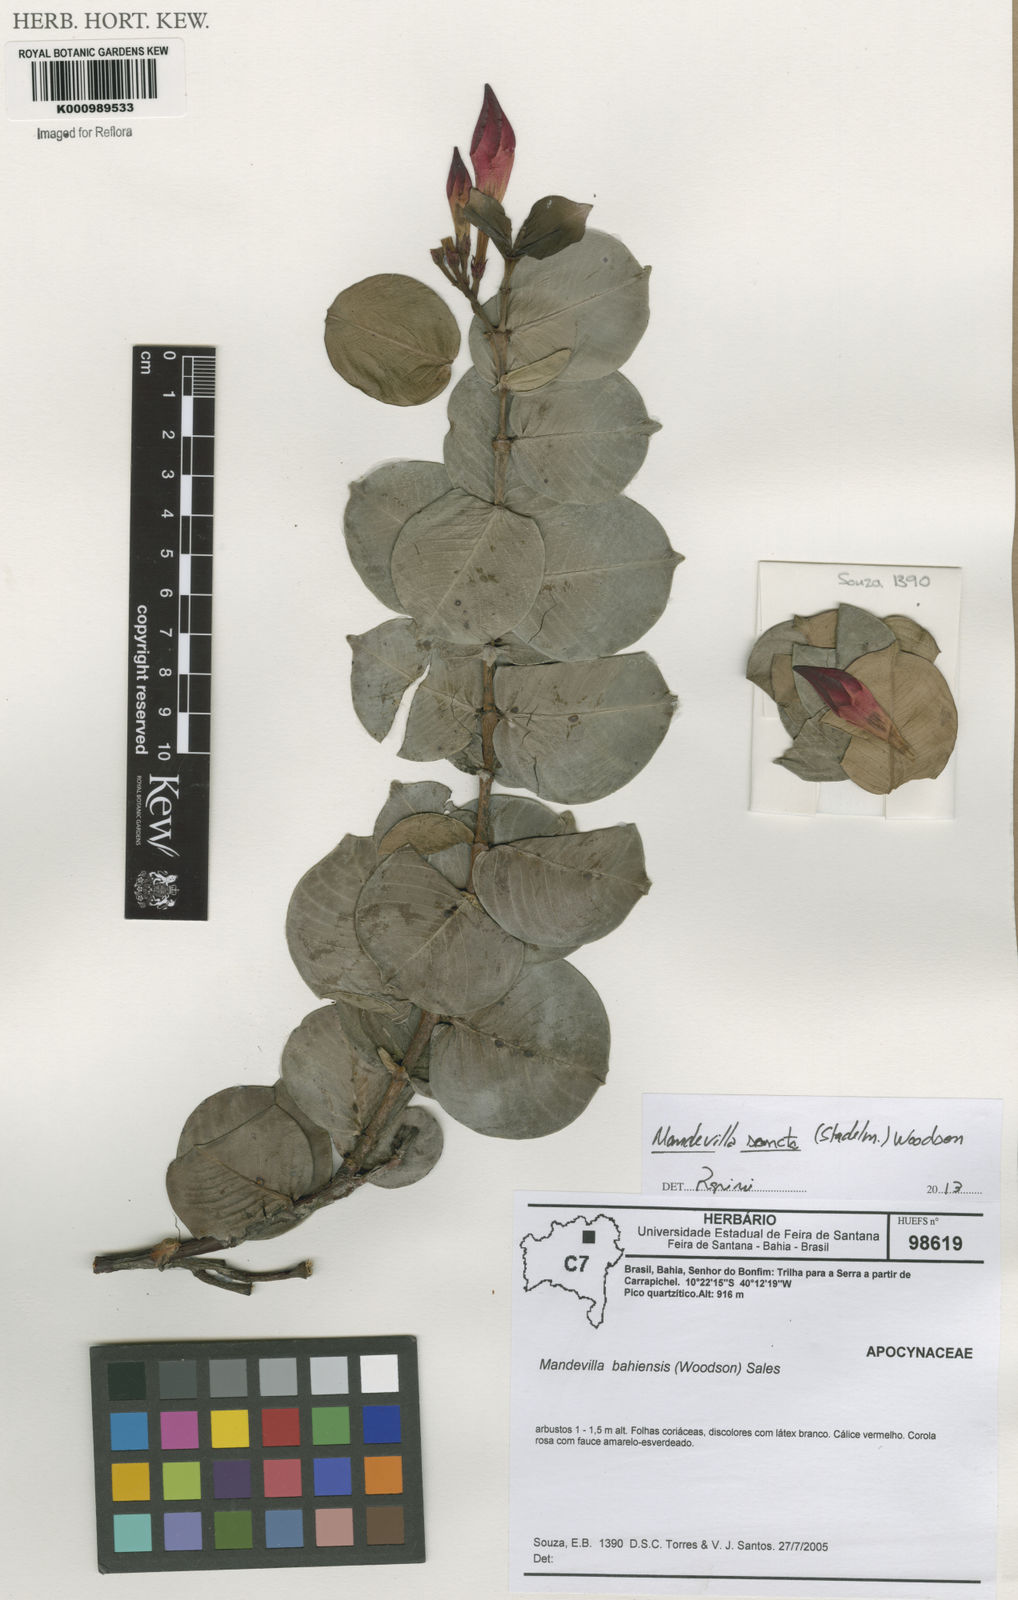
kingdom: Plantae
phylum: Tracheophyta
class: Magnoliopsida
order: Gentianales
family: Apocynaceae
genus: Mandevilla
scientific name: Mandevilla bahiensis
